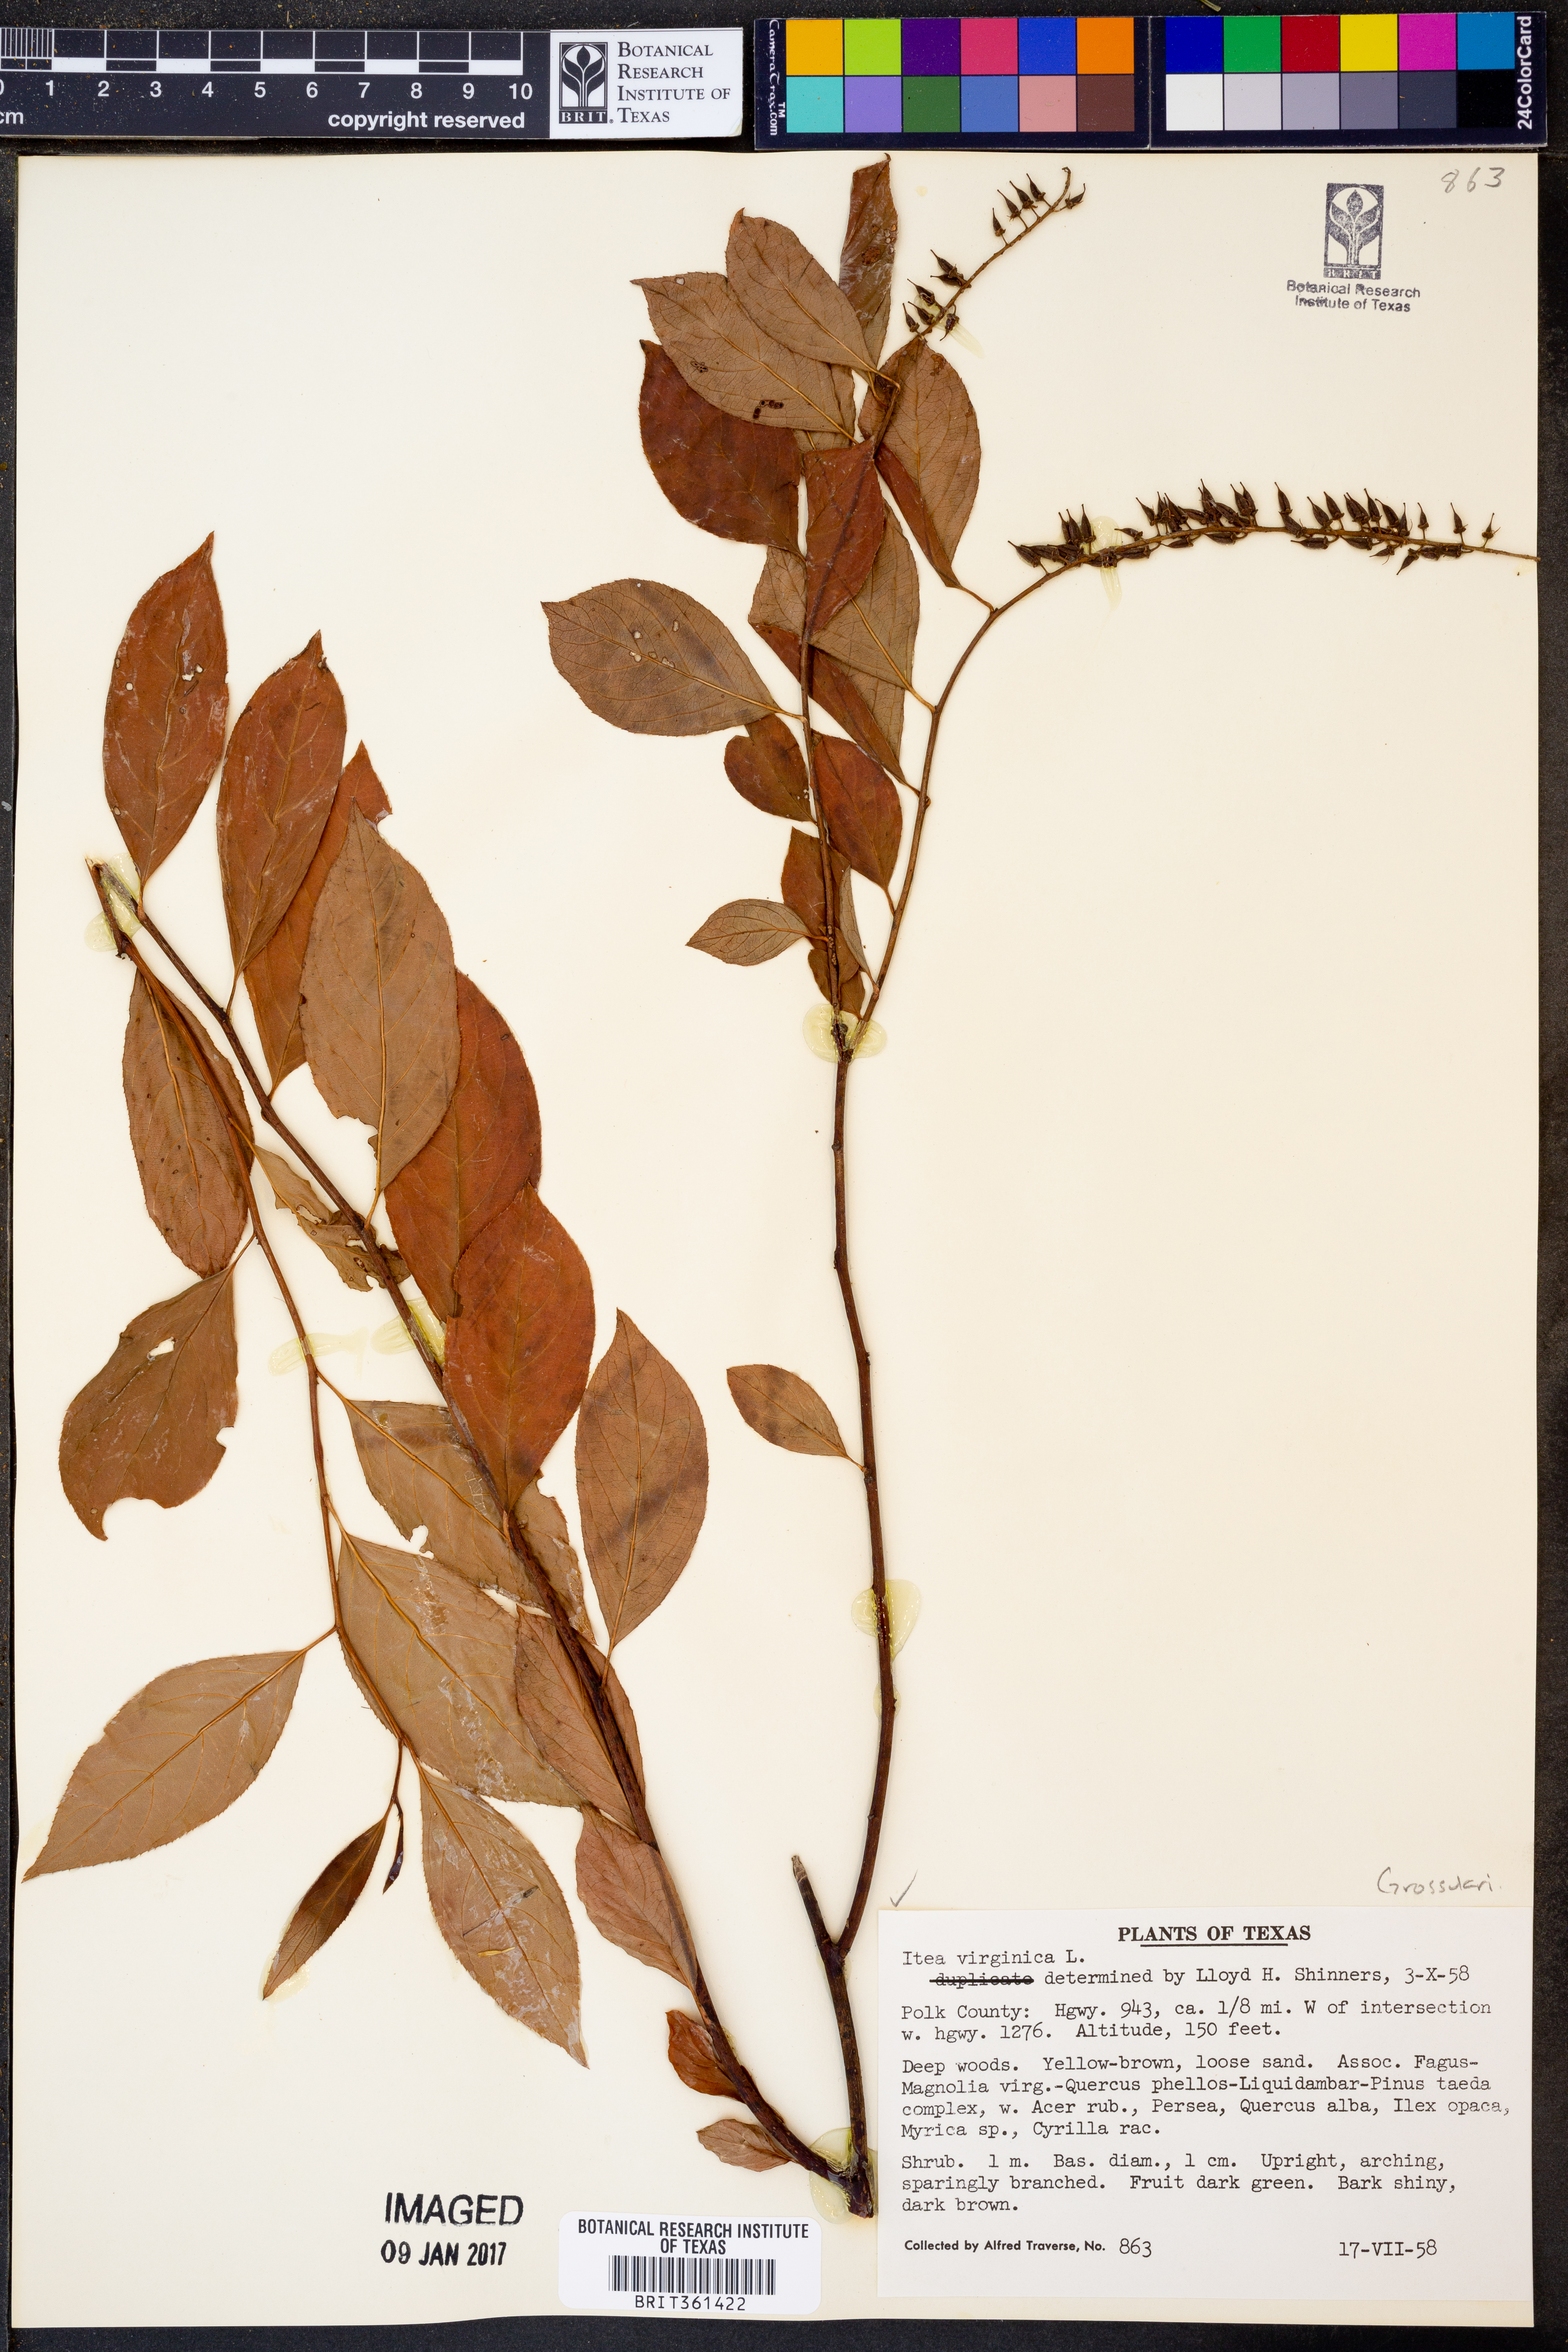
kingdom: Plantae
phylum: Tracheophyta
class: Magnoliopsida
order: Saxifragales
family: Iteaceae
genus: Itea
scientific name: Itea virginica
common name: Sweetspire
